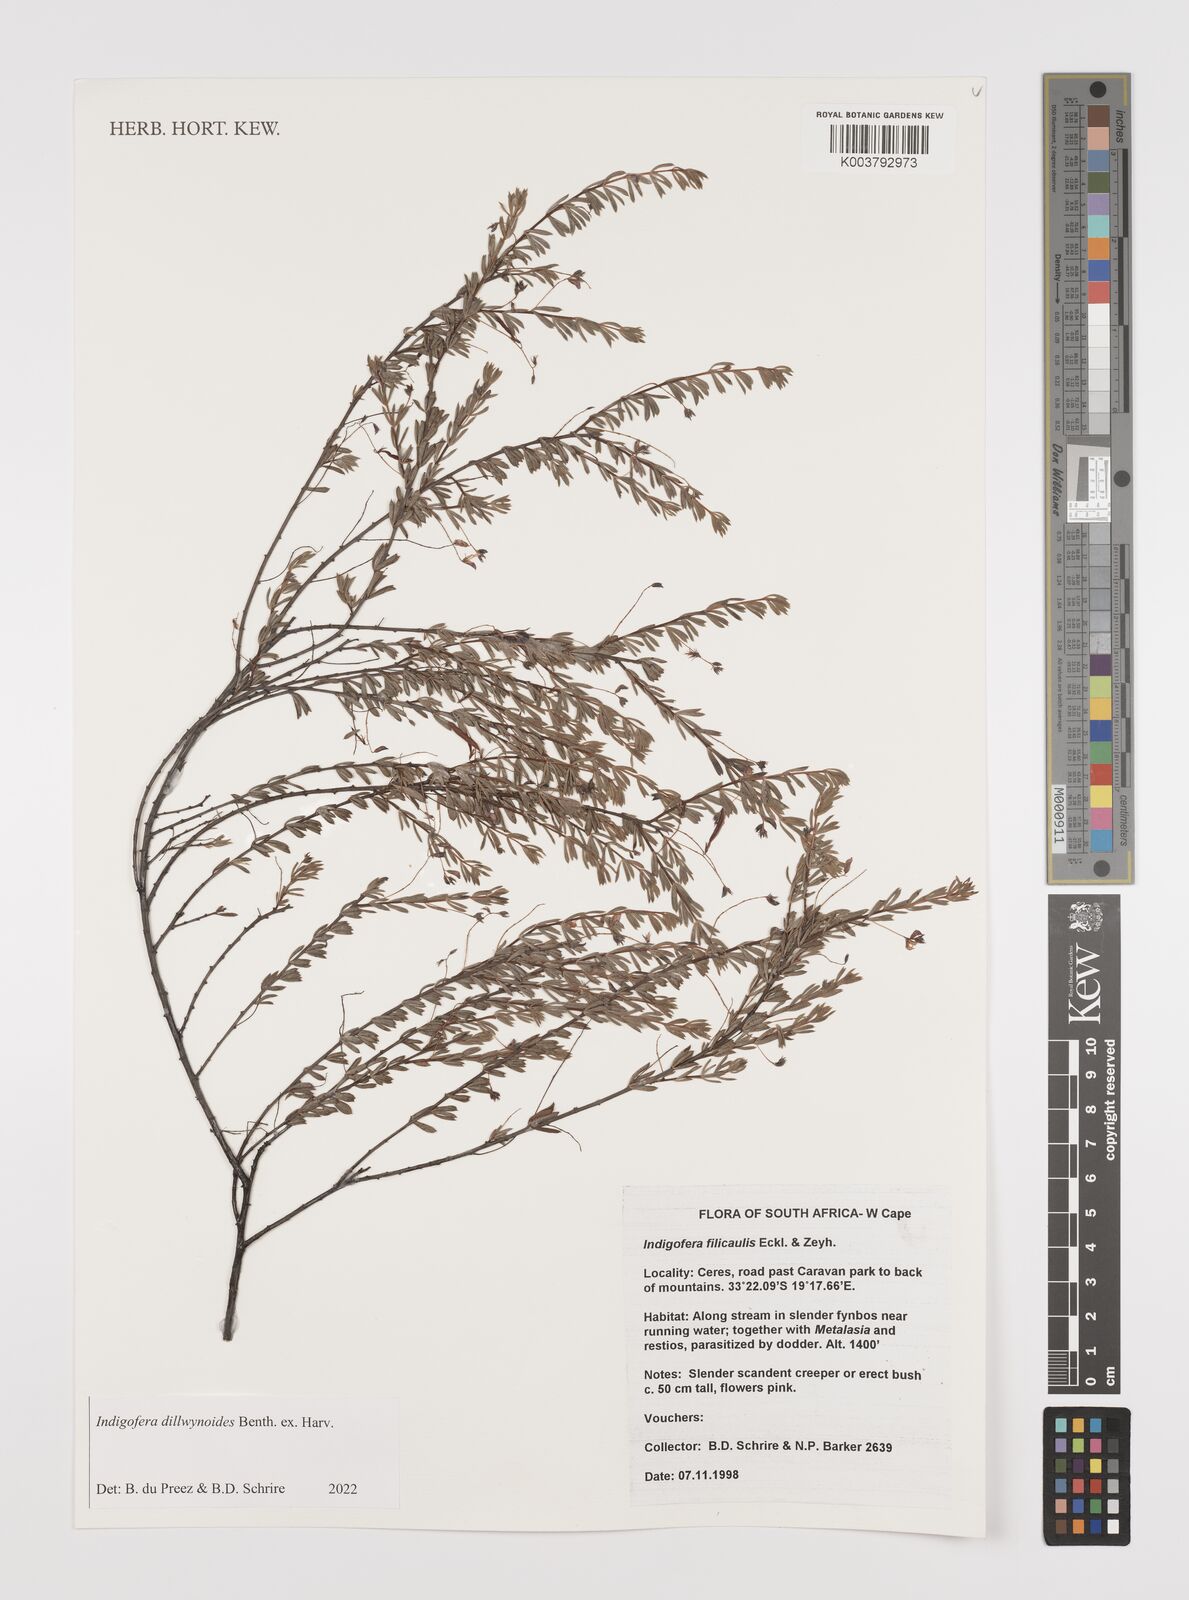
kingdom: Plantae
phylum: Tracheophyta
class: Magnoliopsida
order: Fabales
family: Fabaceae
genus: Indigofera
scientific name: Indigofera dillwynioides
